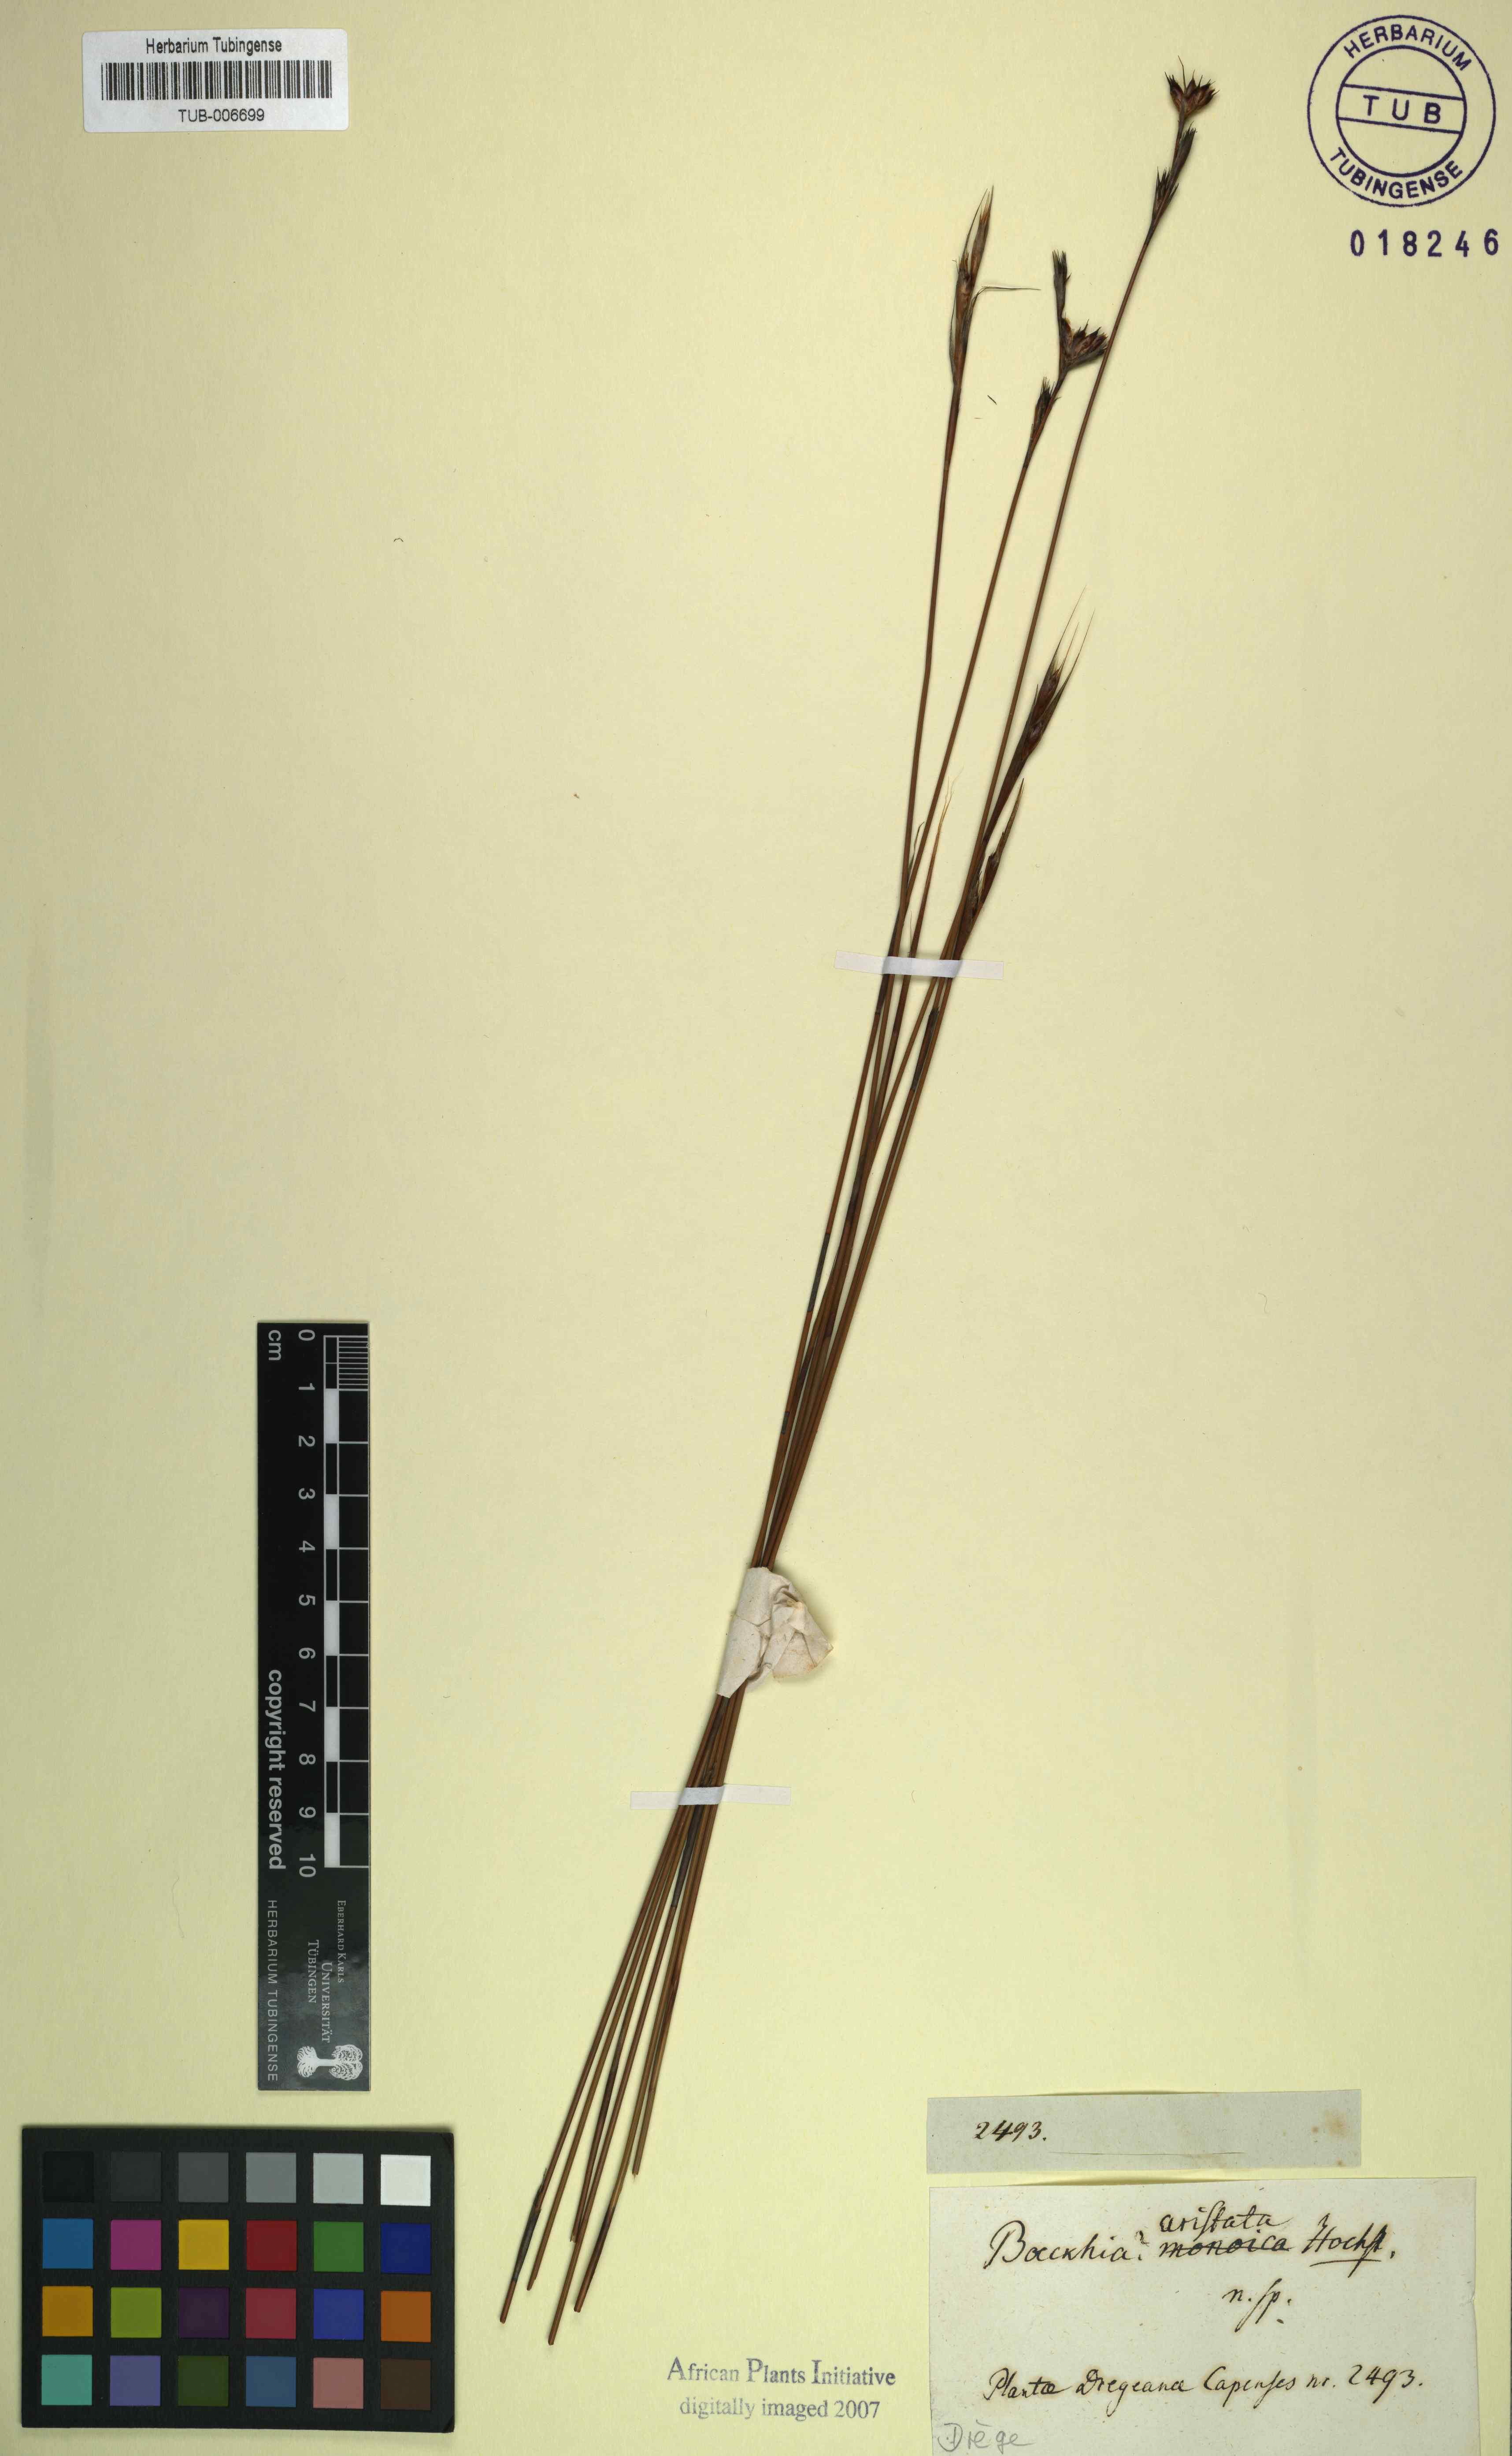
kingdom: Plantae
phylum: Tracheophyta
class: Liliopsida
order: Poales
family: Restionaceae
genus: Hypodiscus
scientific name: Hypodiscus
